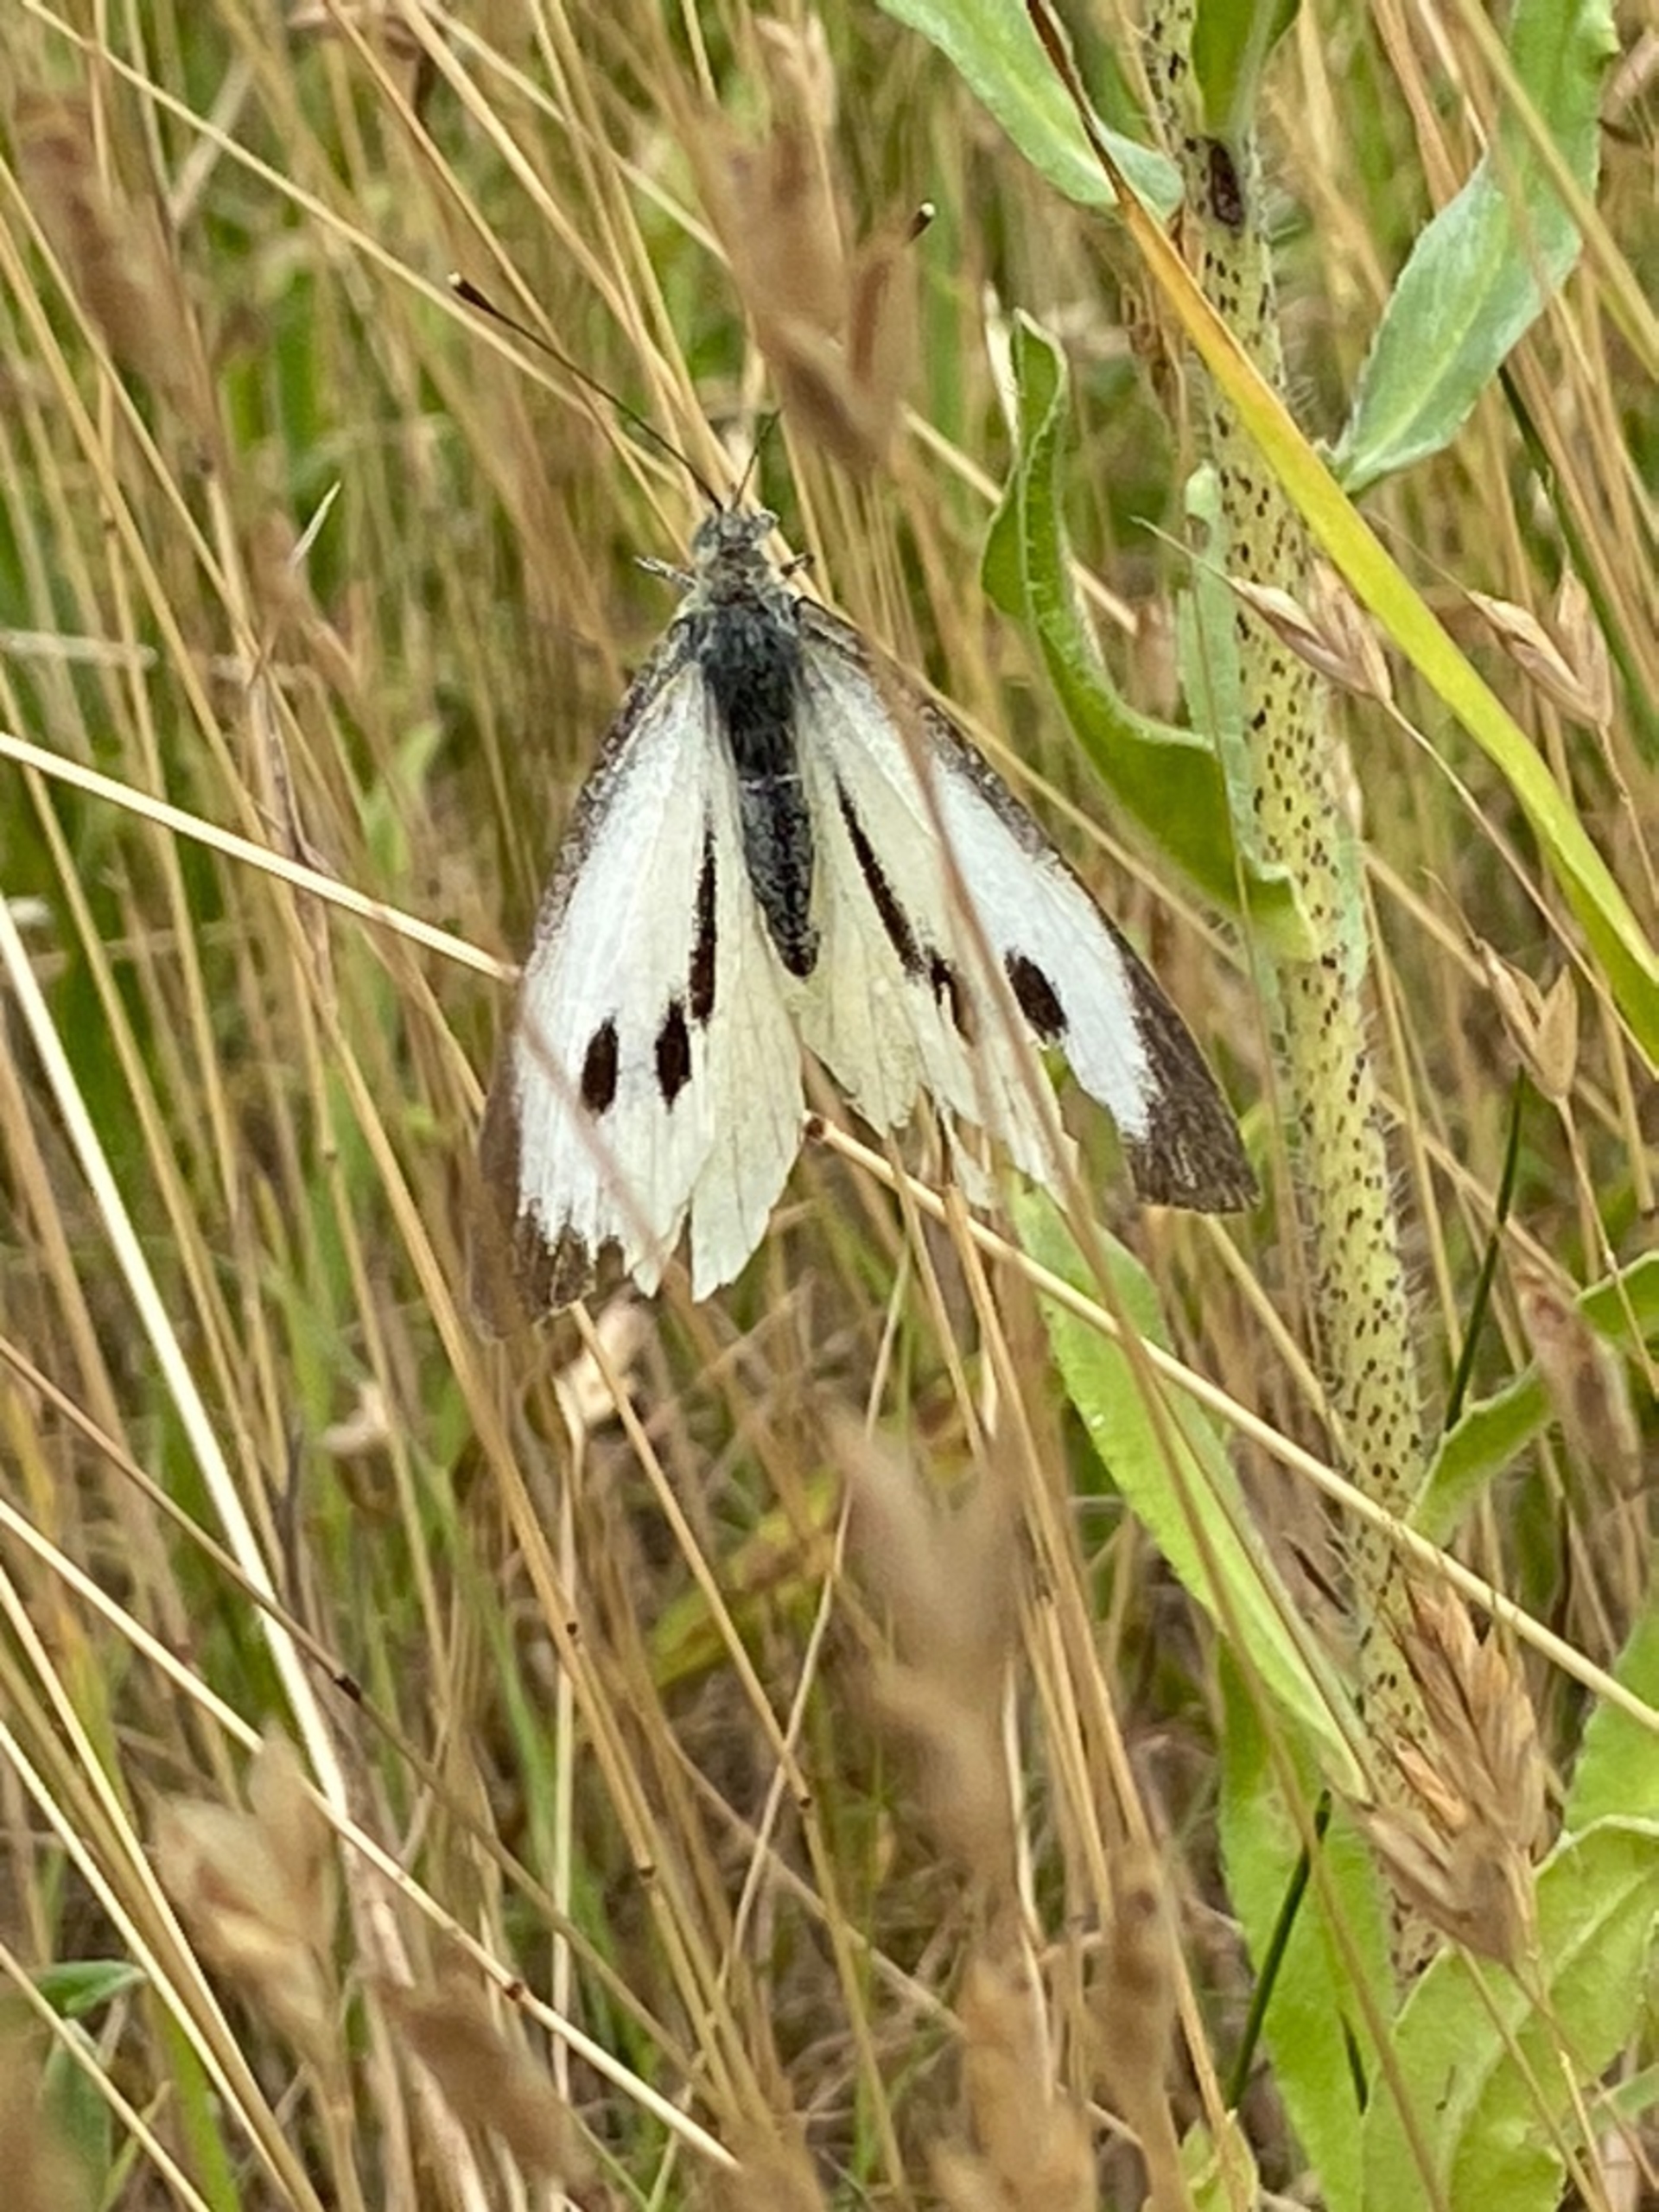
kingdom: Animalia
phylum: Arthropoda
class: Insecta
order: Lepidoptera
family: Pieridae
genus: Pieris
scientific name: Pieris brassicae
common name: Stor kålsommerfugl
